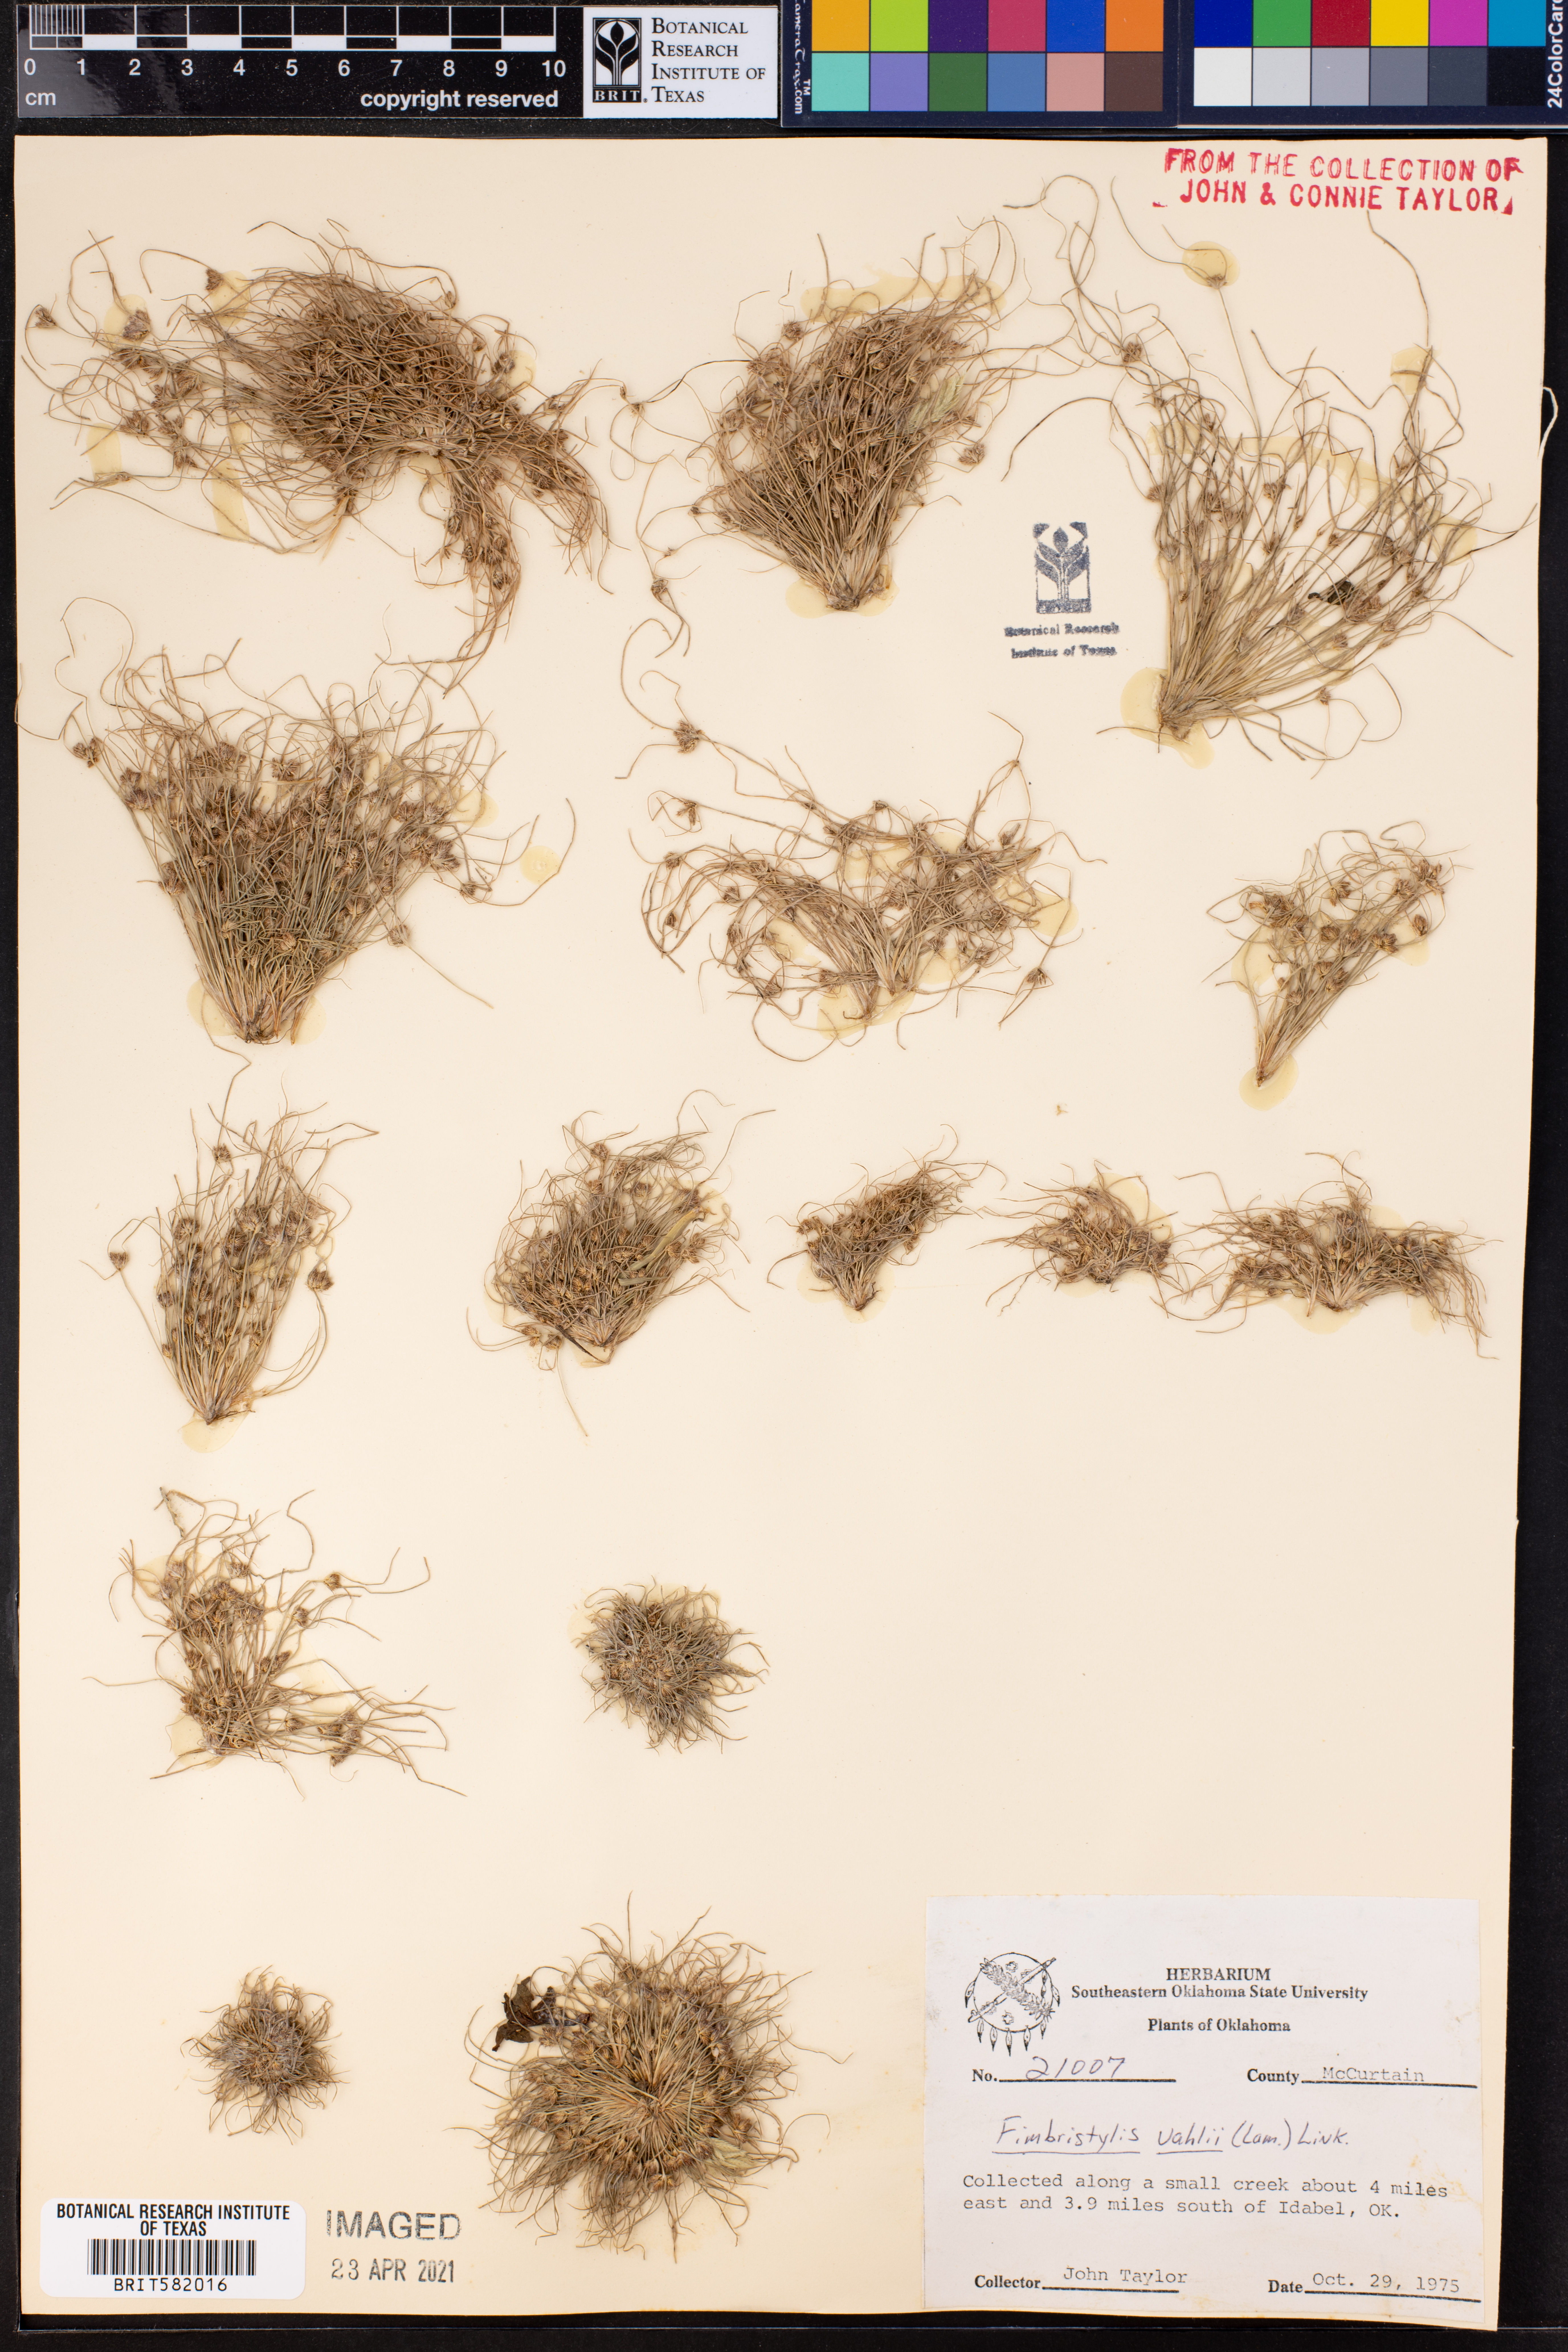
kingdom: Plantae
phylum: Tracheophyta
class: Liliopsida
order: Poales
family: Cyperaceae
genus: Fimbristylis
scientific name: Fimbristylis vahlii
